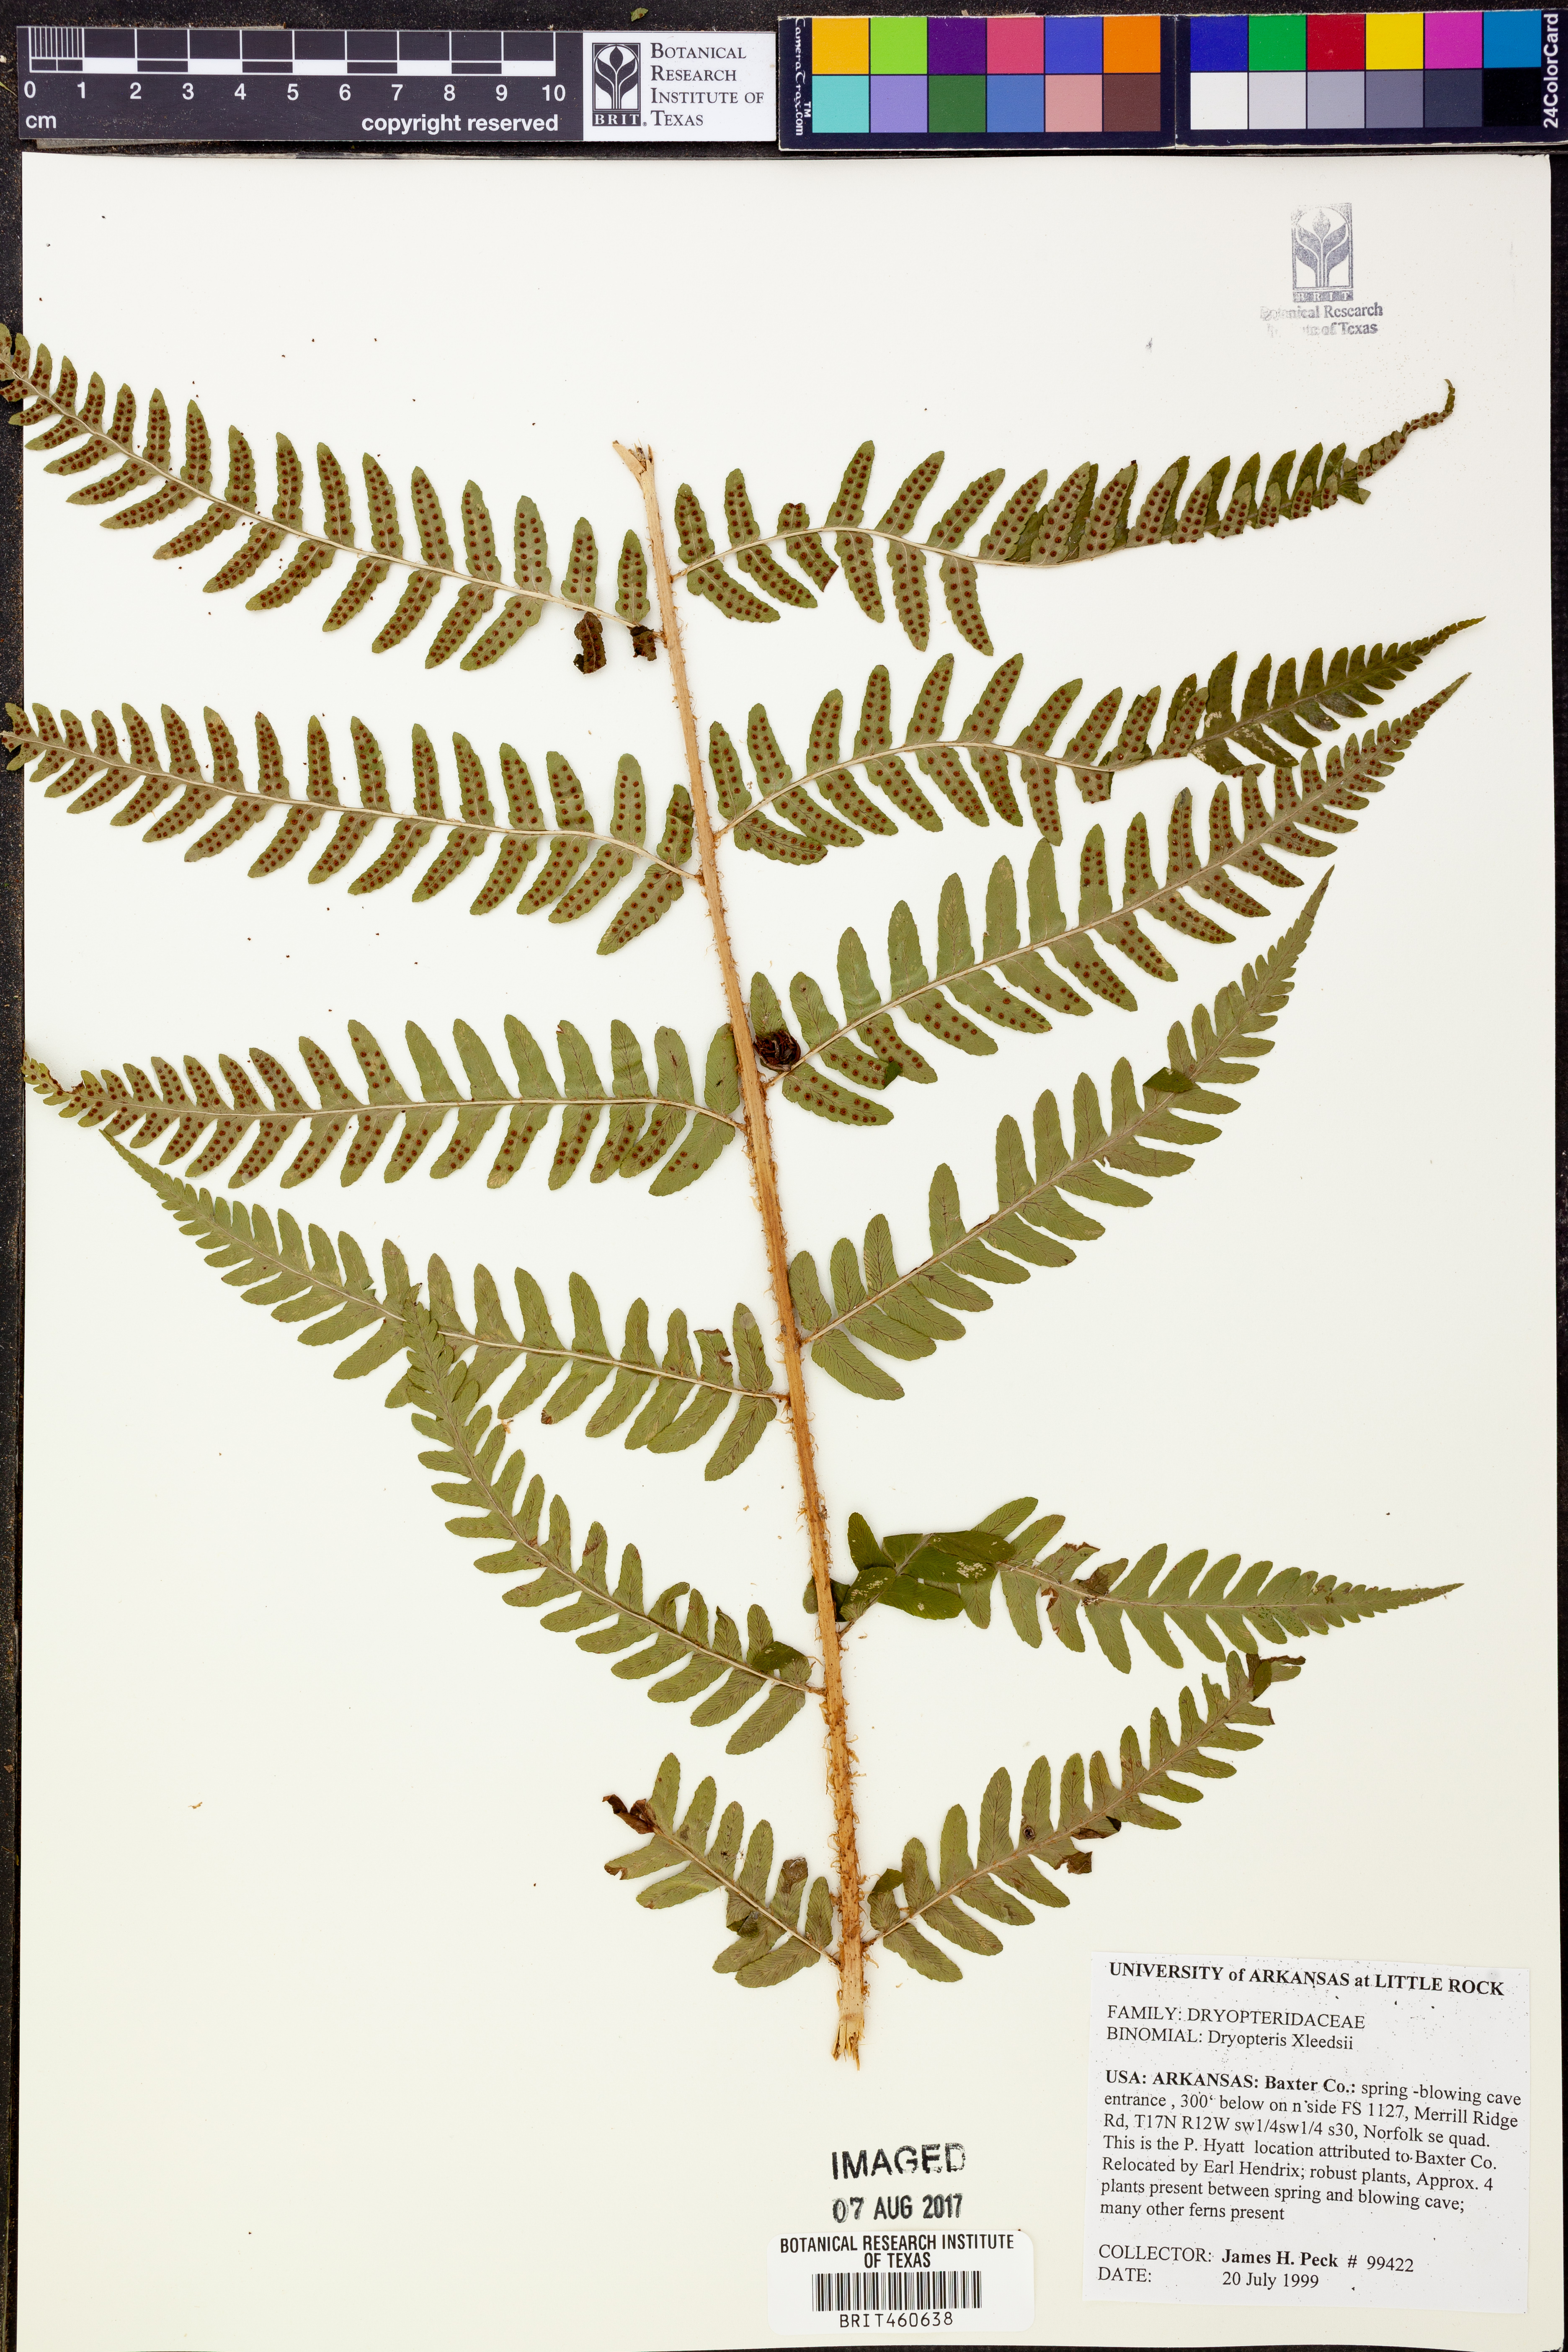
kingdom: Plantae
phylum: Tracheophyta
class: Polypodiopsida
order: Polypodiales
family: Dryopteridaceae
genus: Dryopteris
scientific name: Dryopteris
